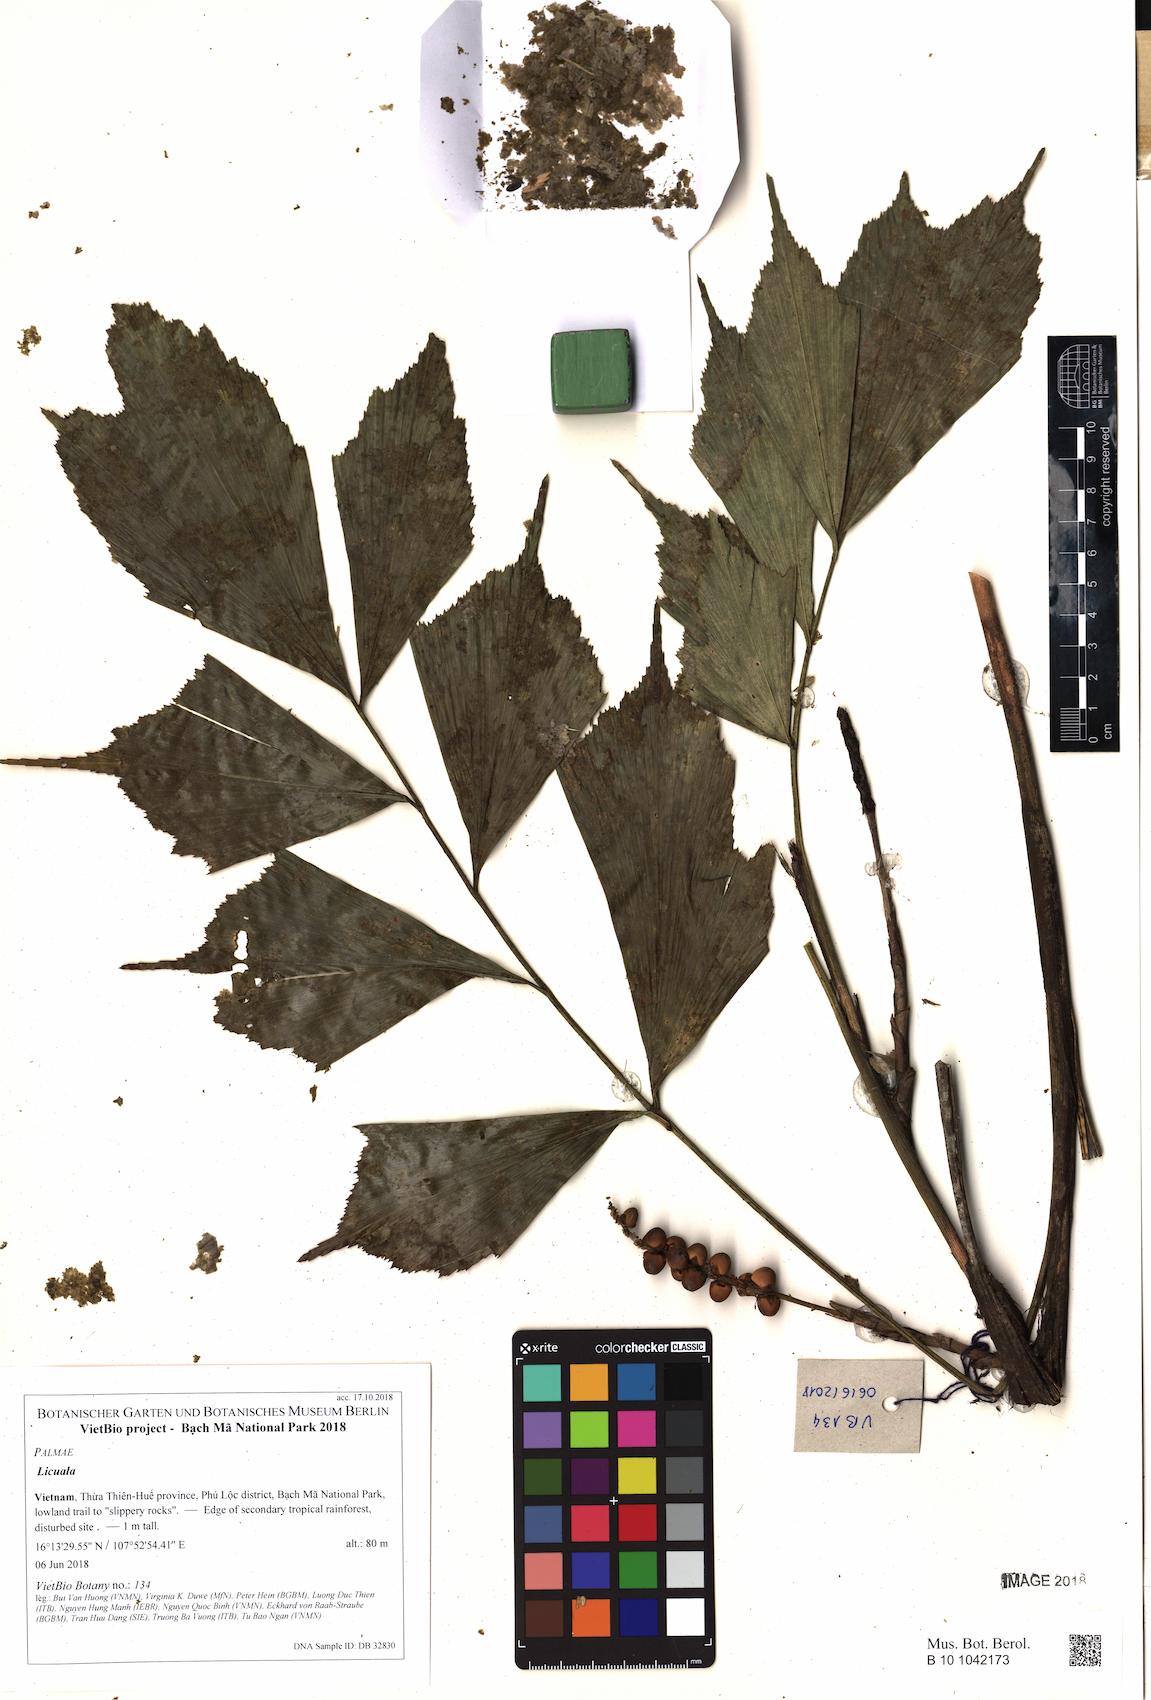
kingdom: Plantae
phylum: Tracheophyta
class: Liliopsida
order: Arecales
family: Arecaceae
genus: Licuala
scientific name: Licuala
